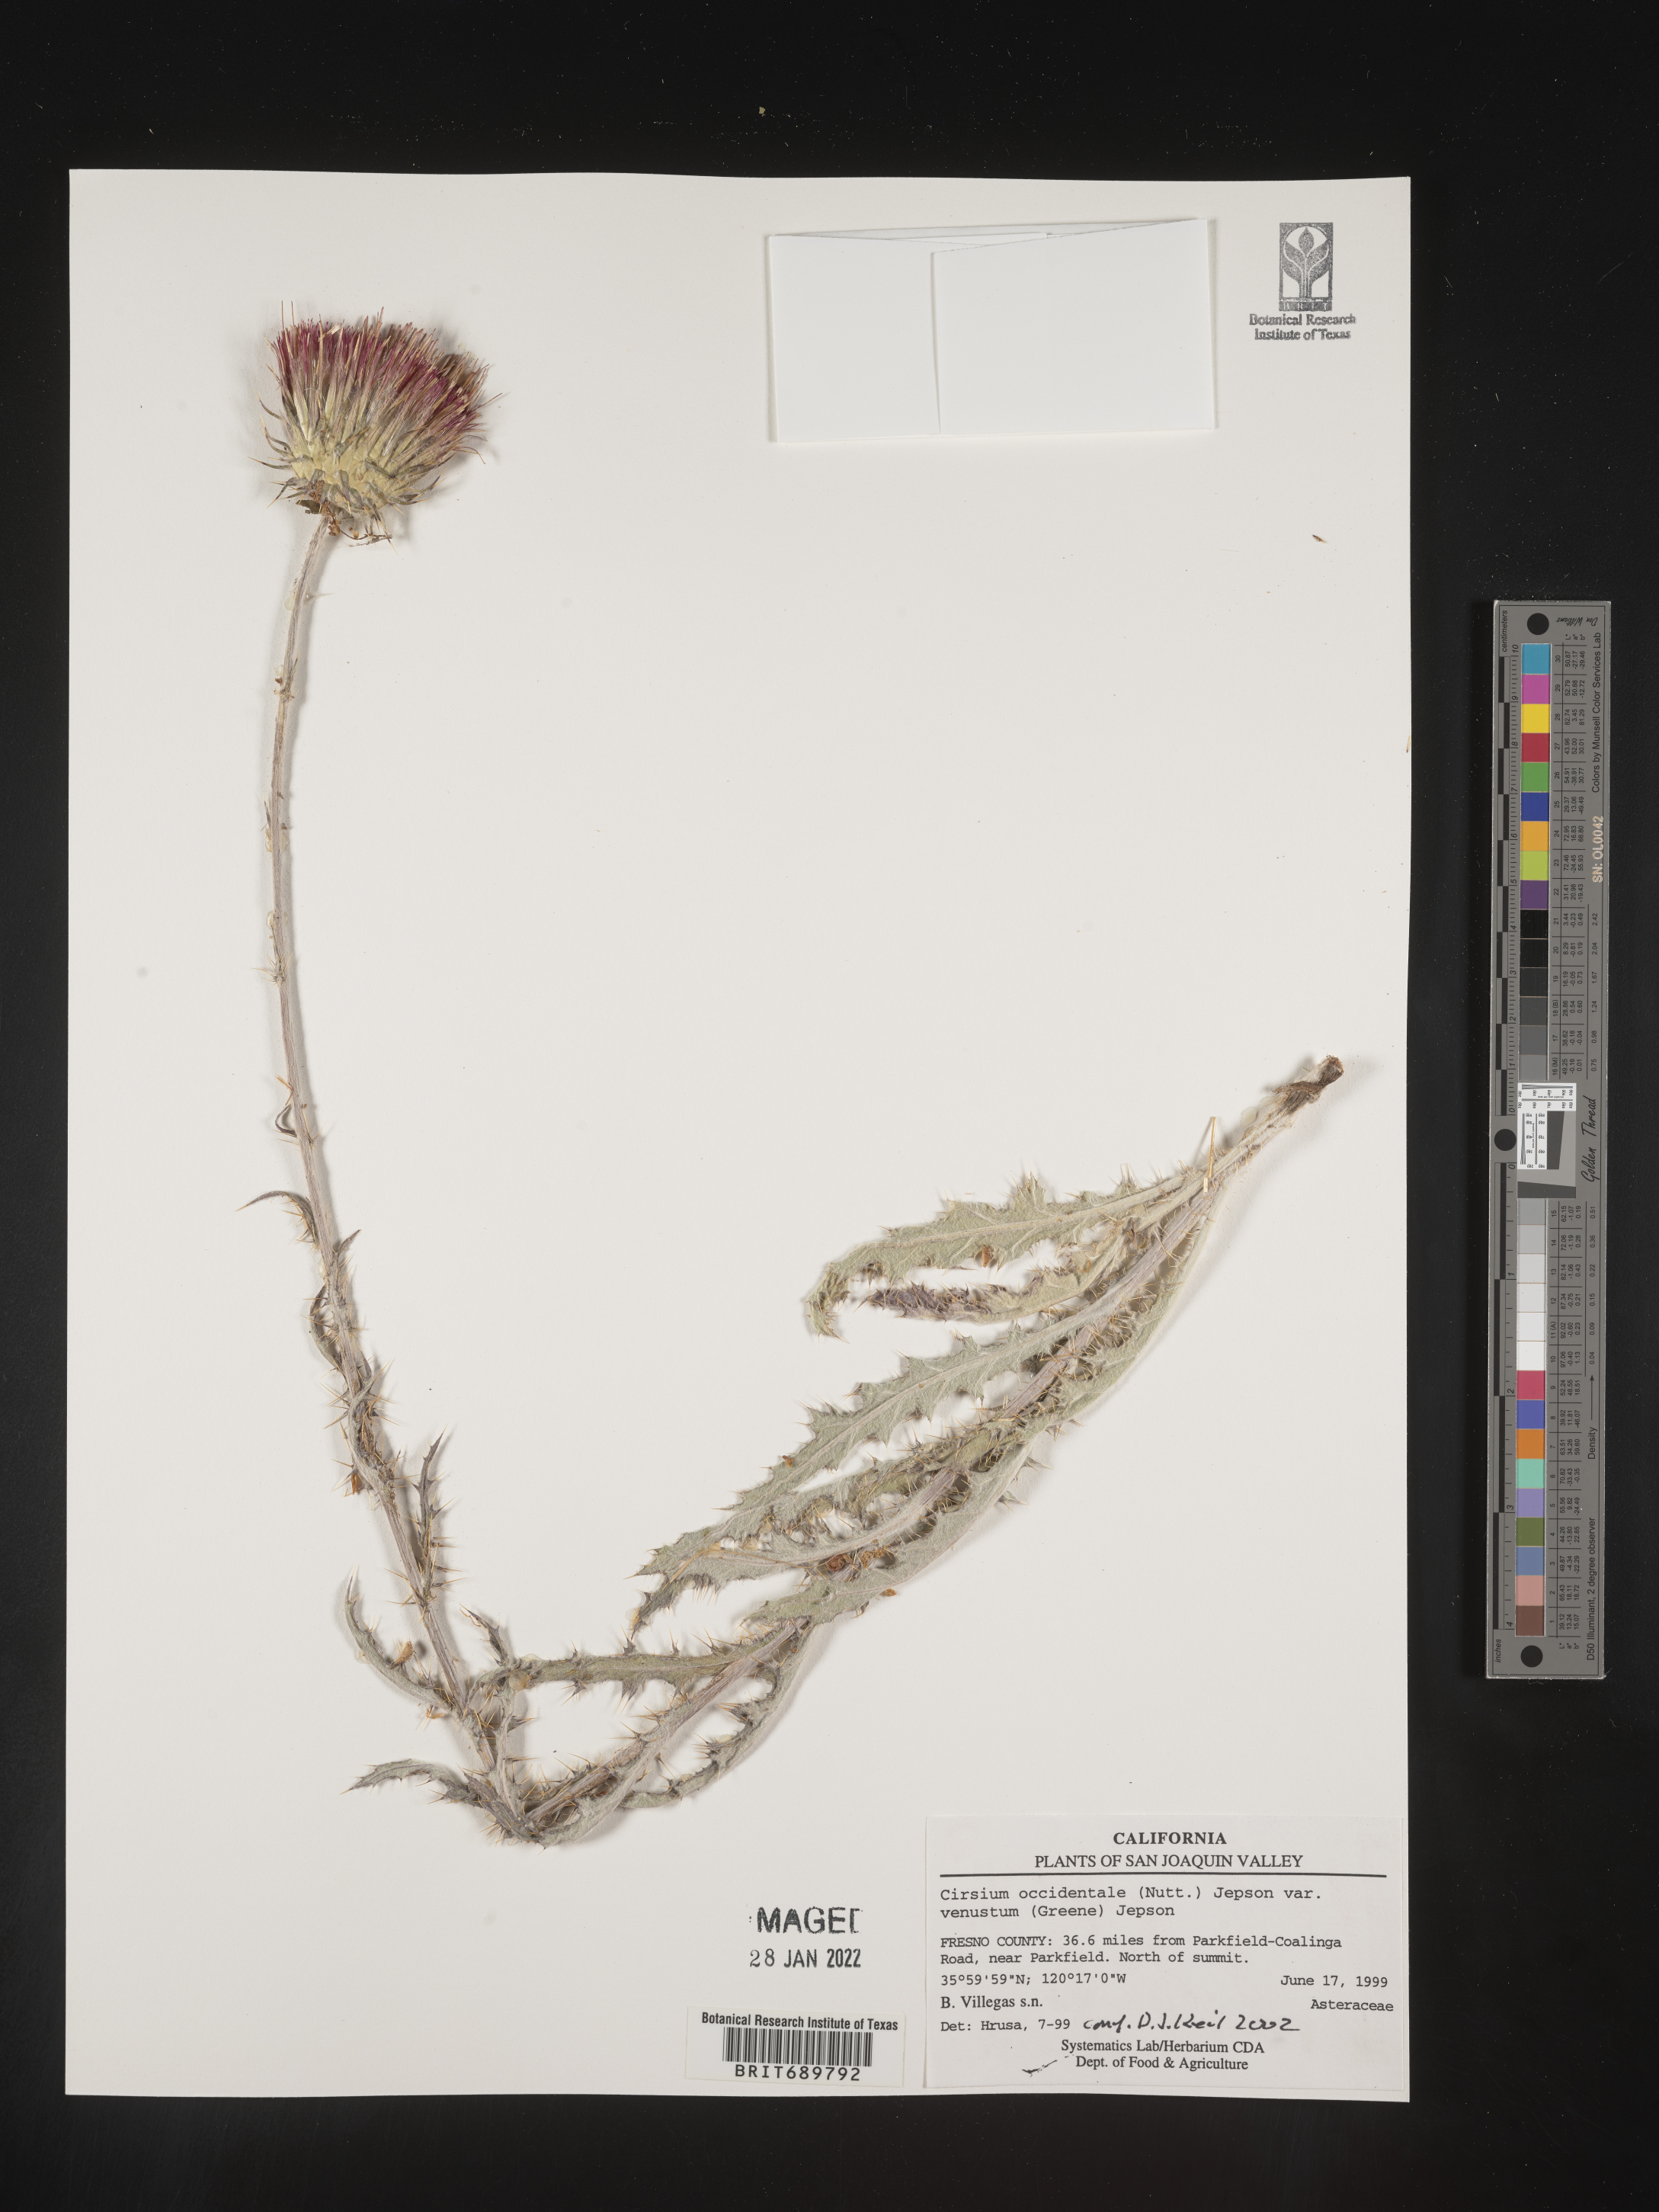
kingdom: Plantae
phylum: Tracheophyta
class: Magnoliopsida
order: Asterales
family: Asteraceae
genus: Cirsium
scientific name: Cirsium occidentale
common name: Western thistle
